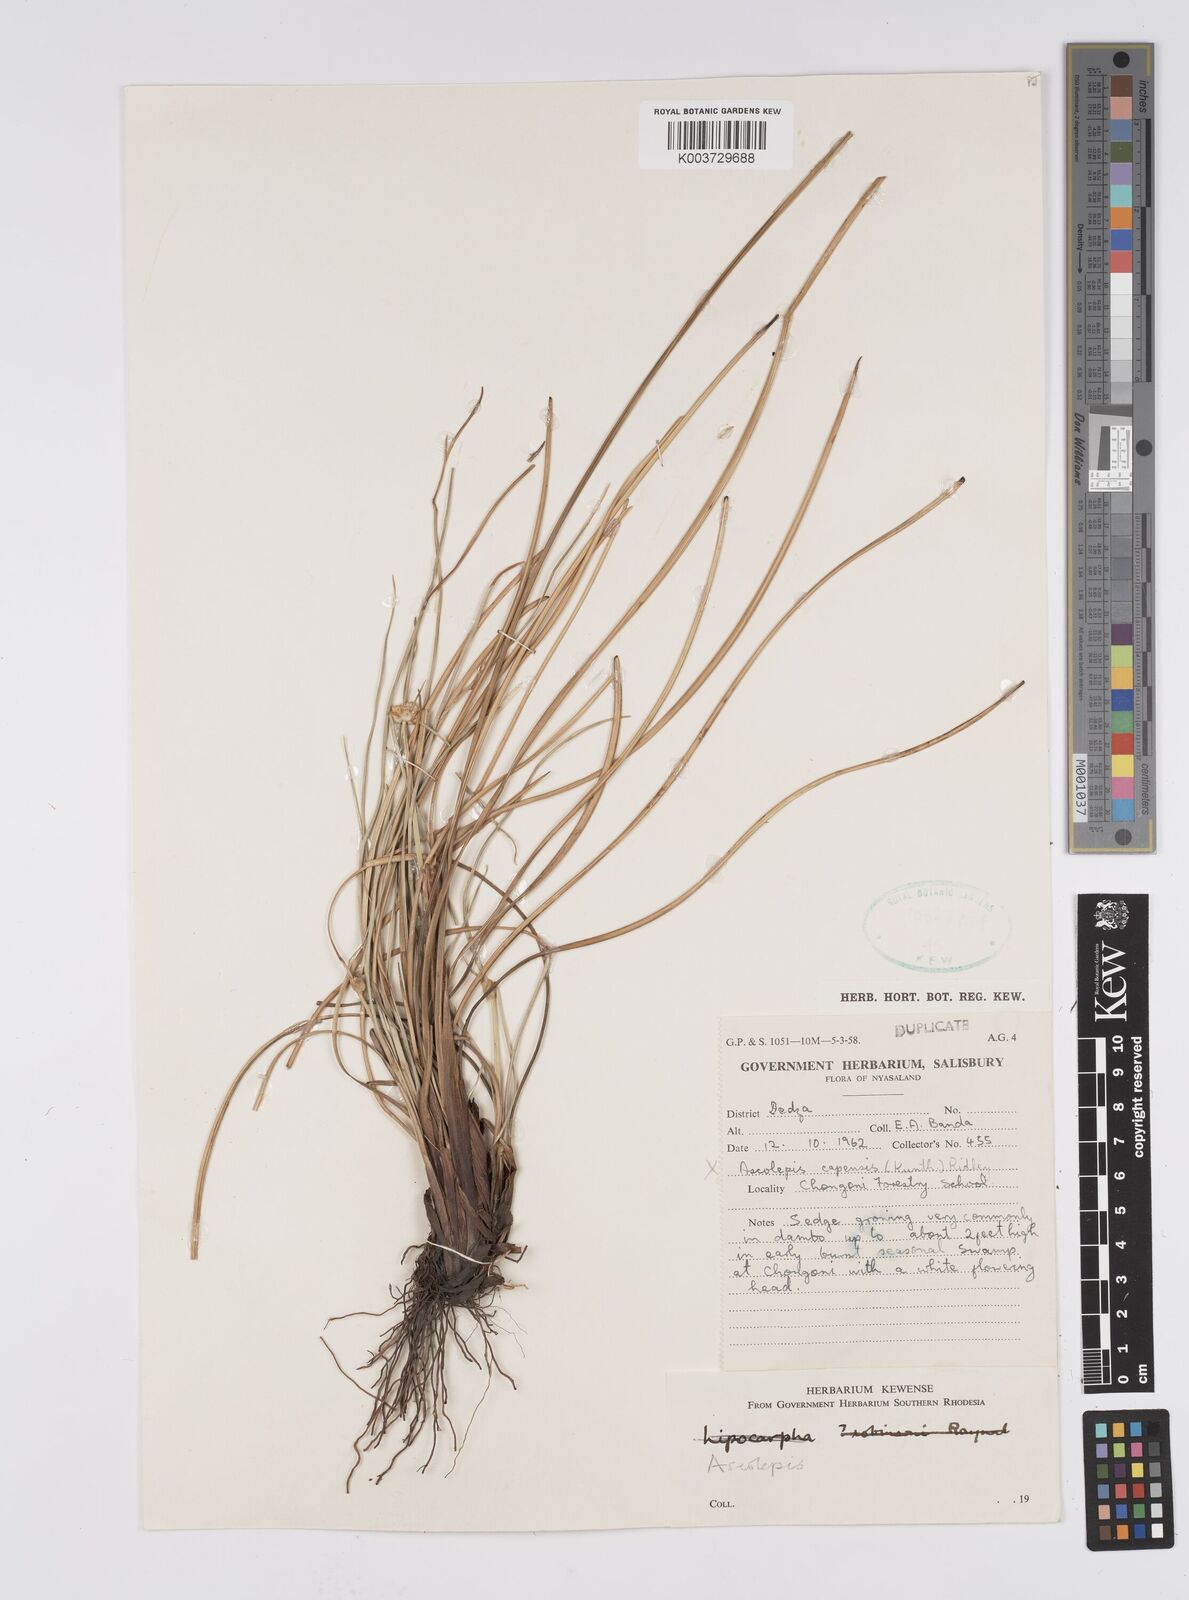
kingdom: Plantae
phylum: Tracheophyta
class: Liliopsida
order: Poales
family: Cyperaceae
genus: Cyperus
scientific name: Cyperus
